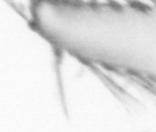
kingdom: Animalia
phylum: Annelida
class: Polychaeta
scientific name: Polychaeta
